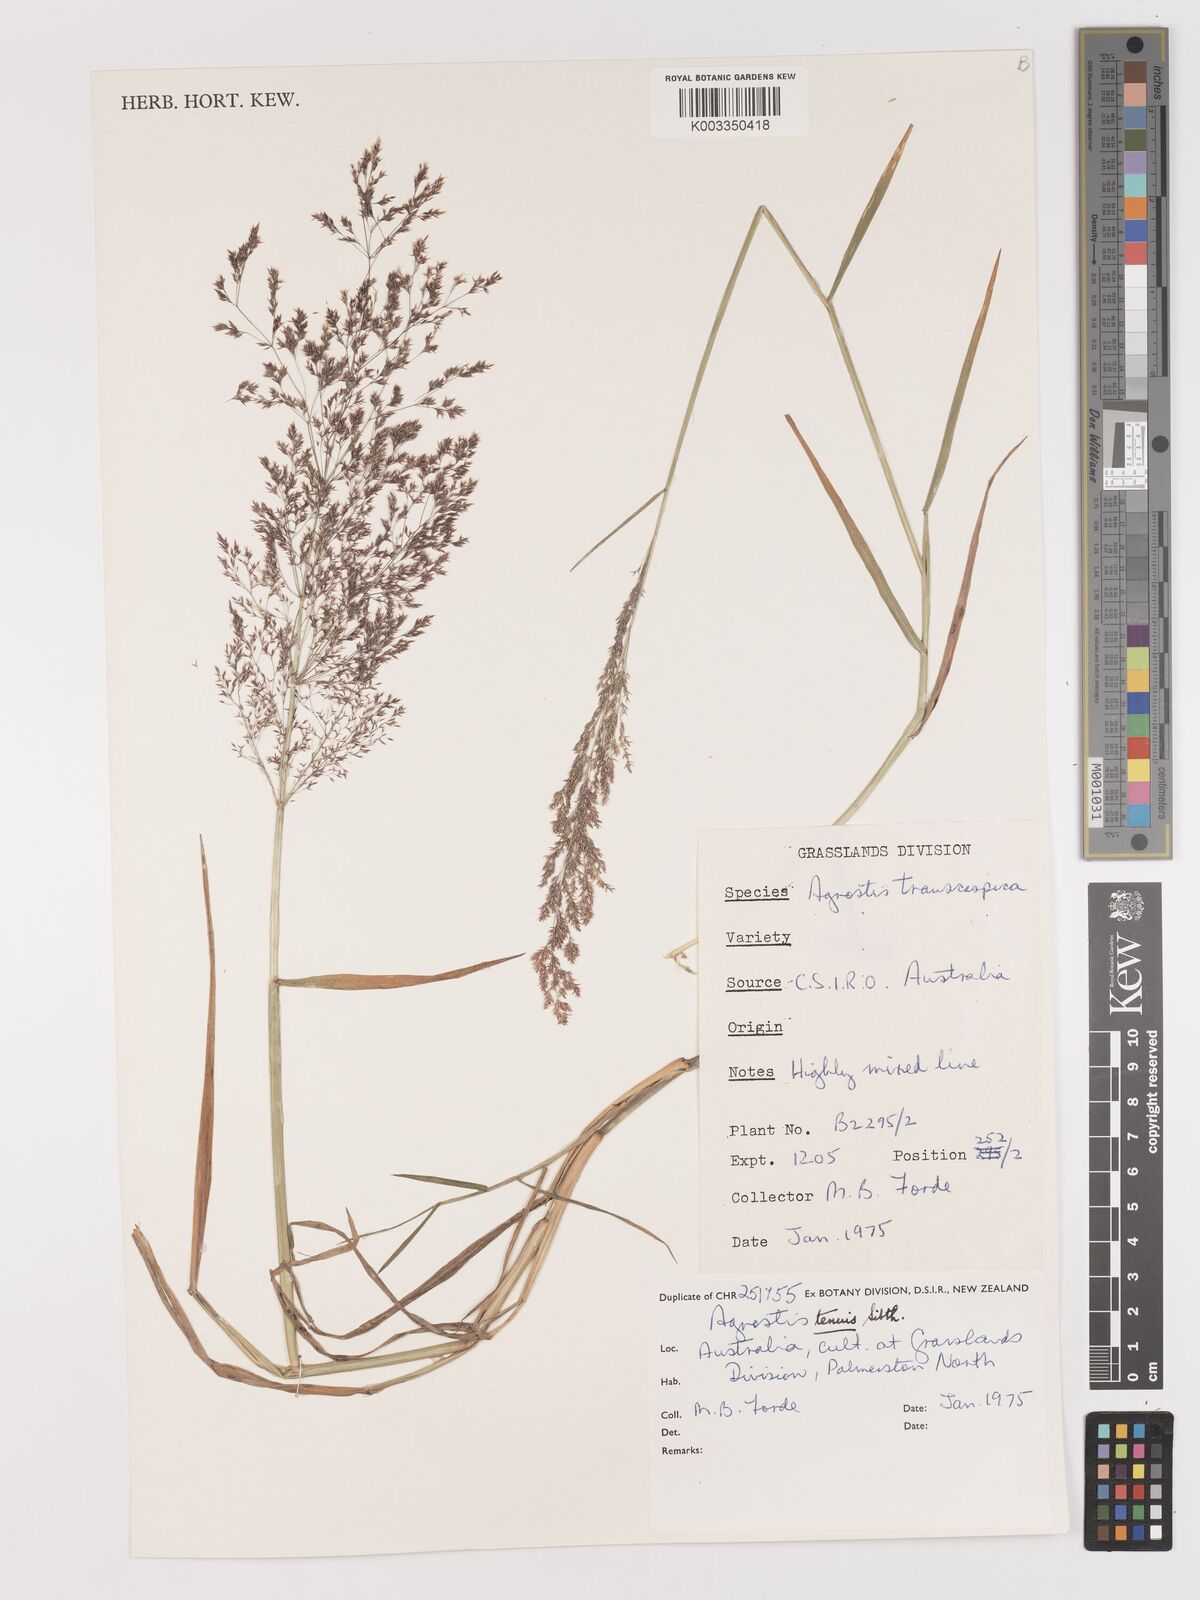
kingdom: Plantae
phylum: Tracheophyta
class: Liliopsida
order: Poales
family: Poaceae
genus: Agrostis
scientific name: Agrostis capillaris
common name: Colonial bentgrass
